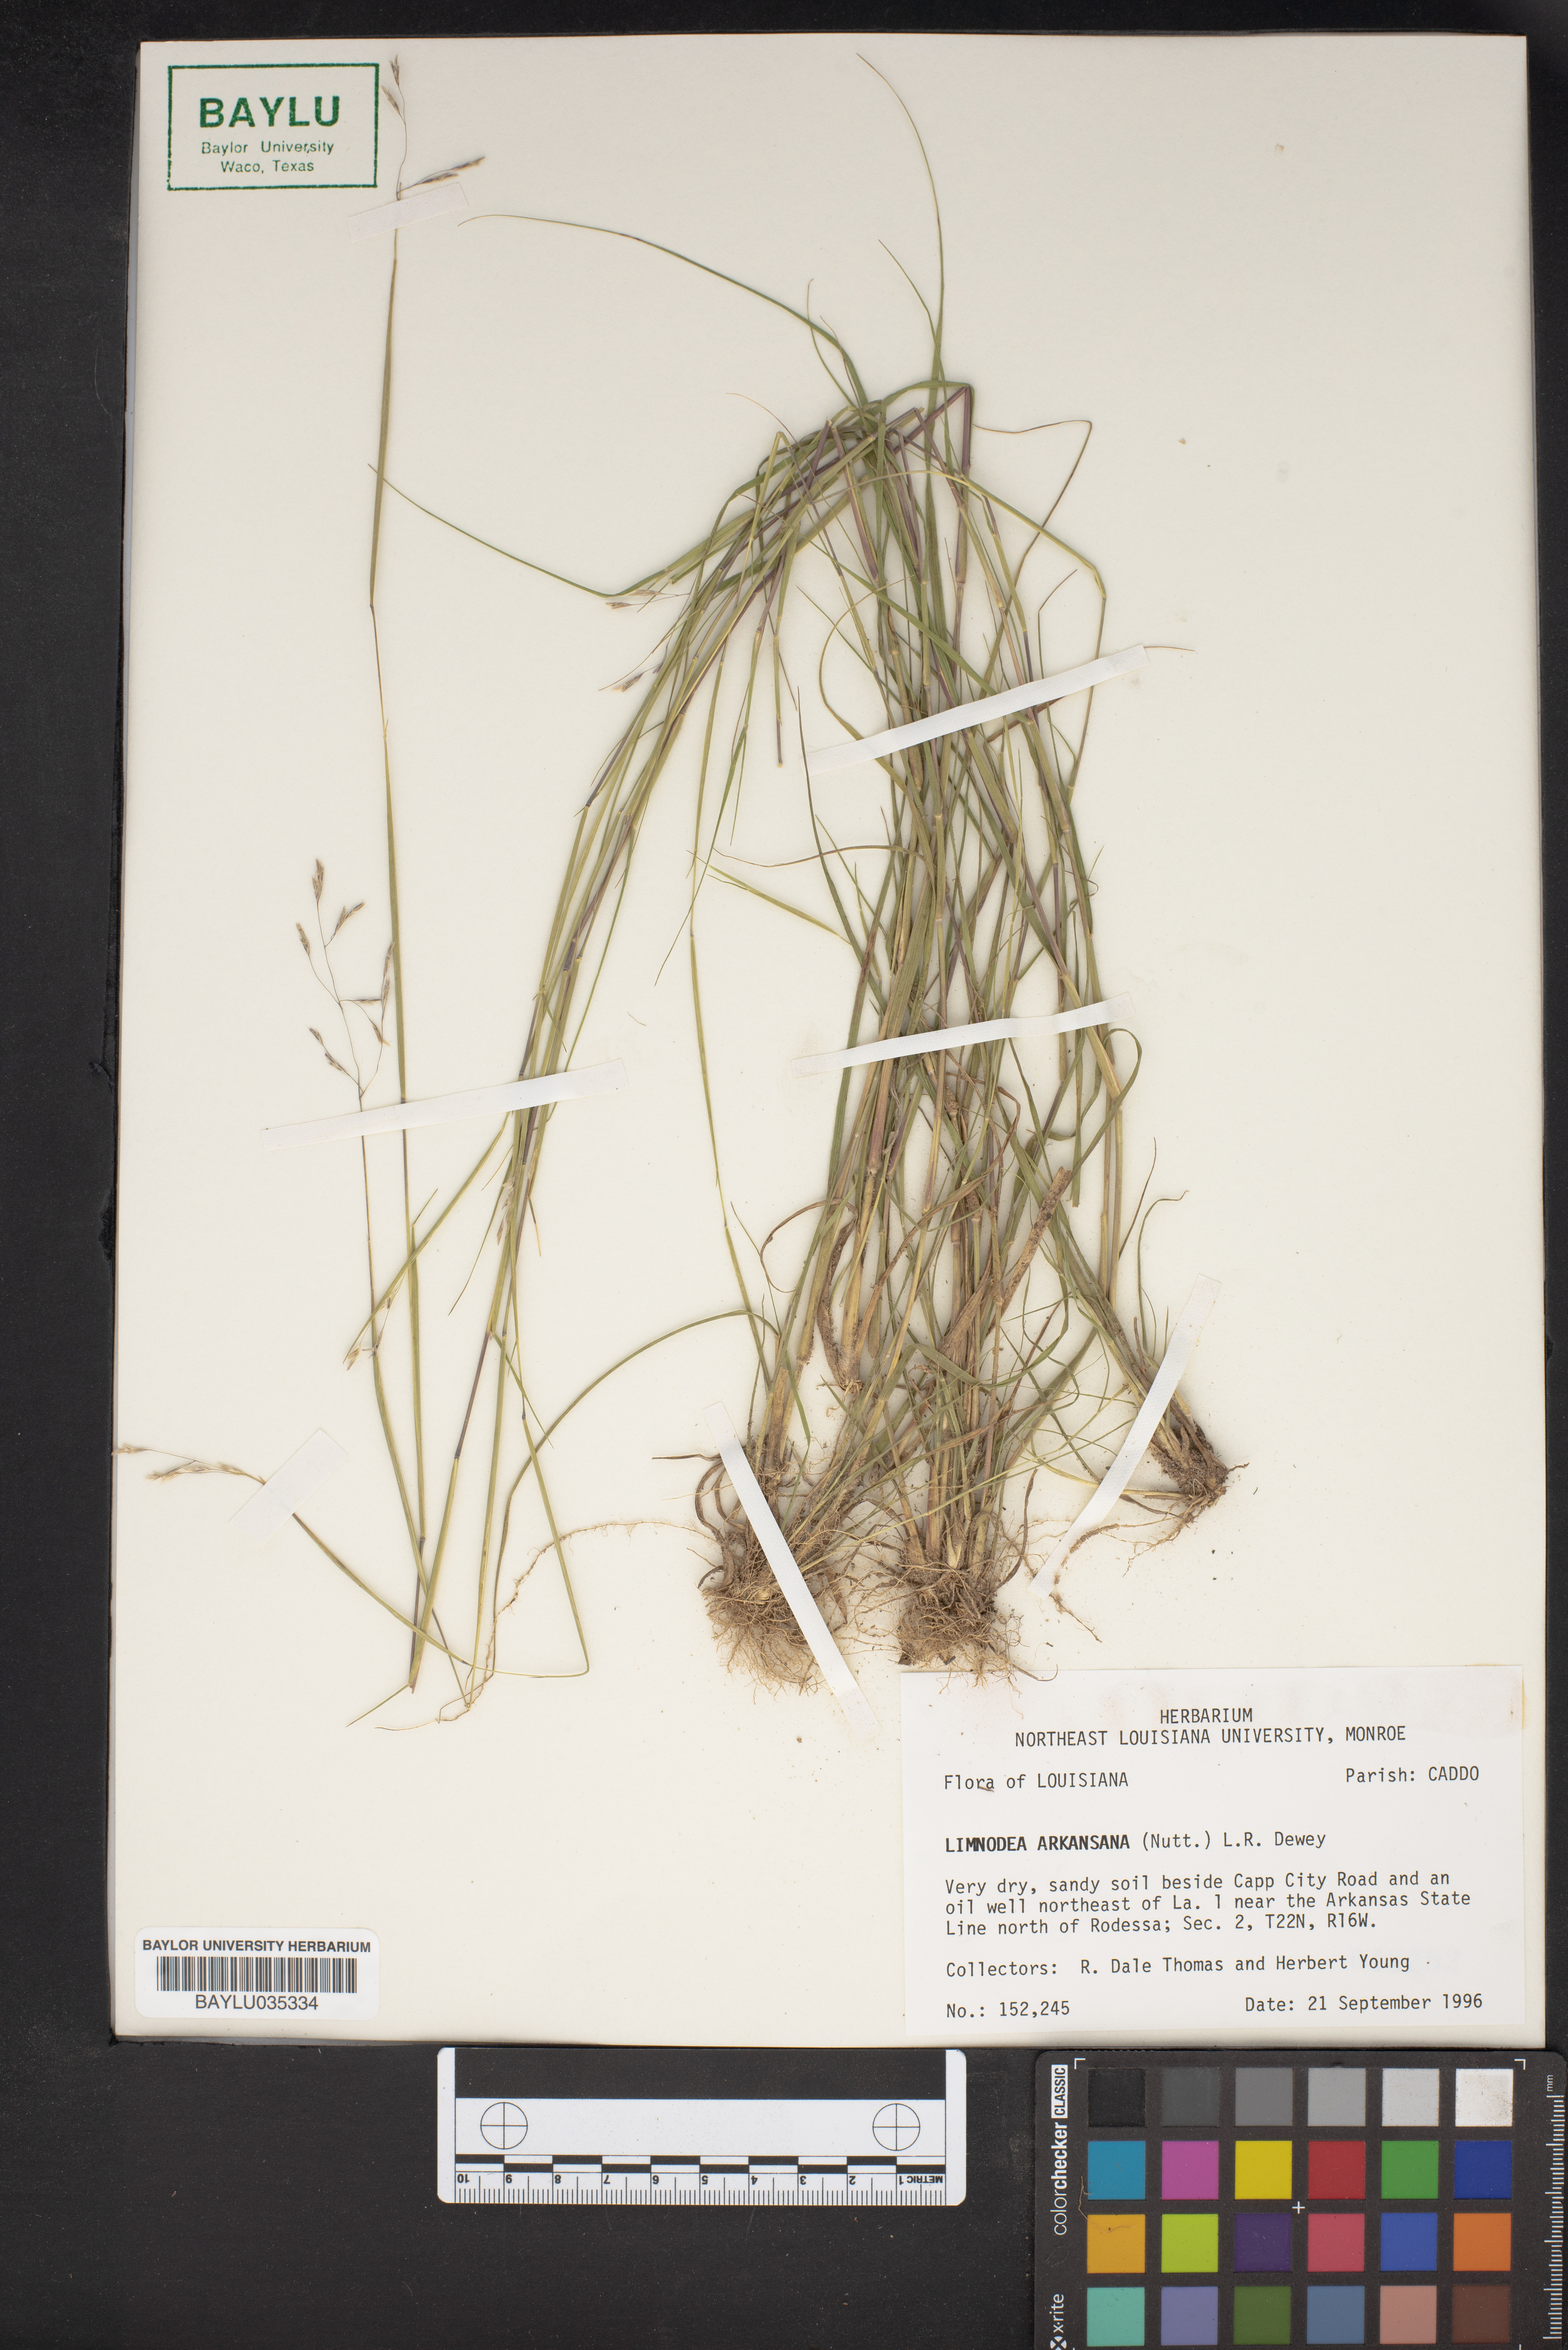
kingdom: Plantae
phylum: Tracheophyta
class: Liliopsida
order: Poales
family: Poaceae
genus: Limnodea
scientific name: Limnodea arkansana
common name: Ozark-grass
